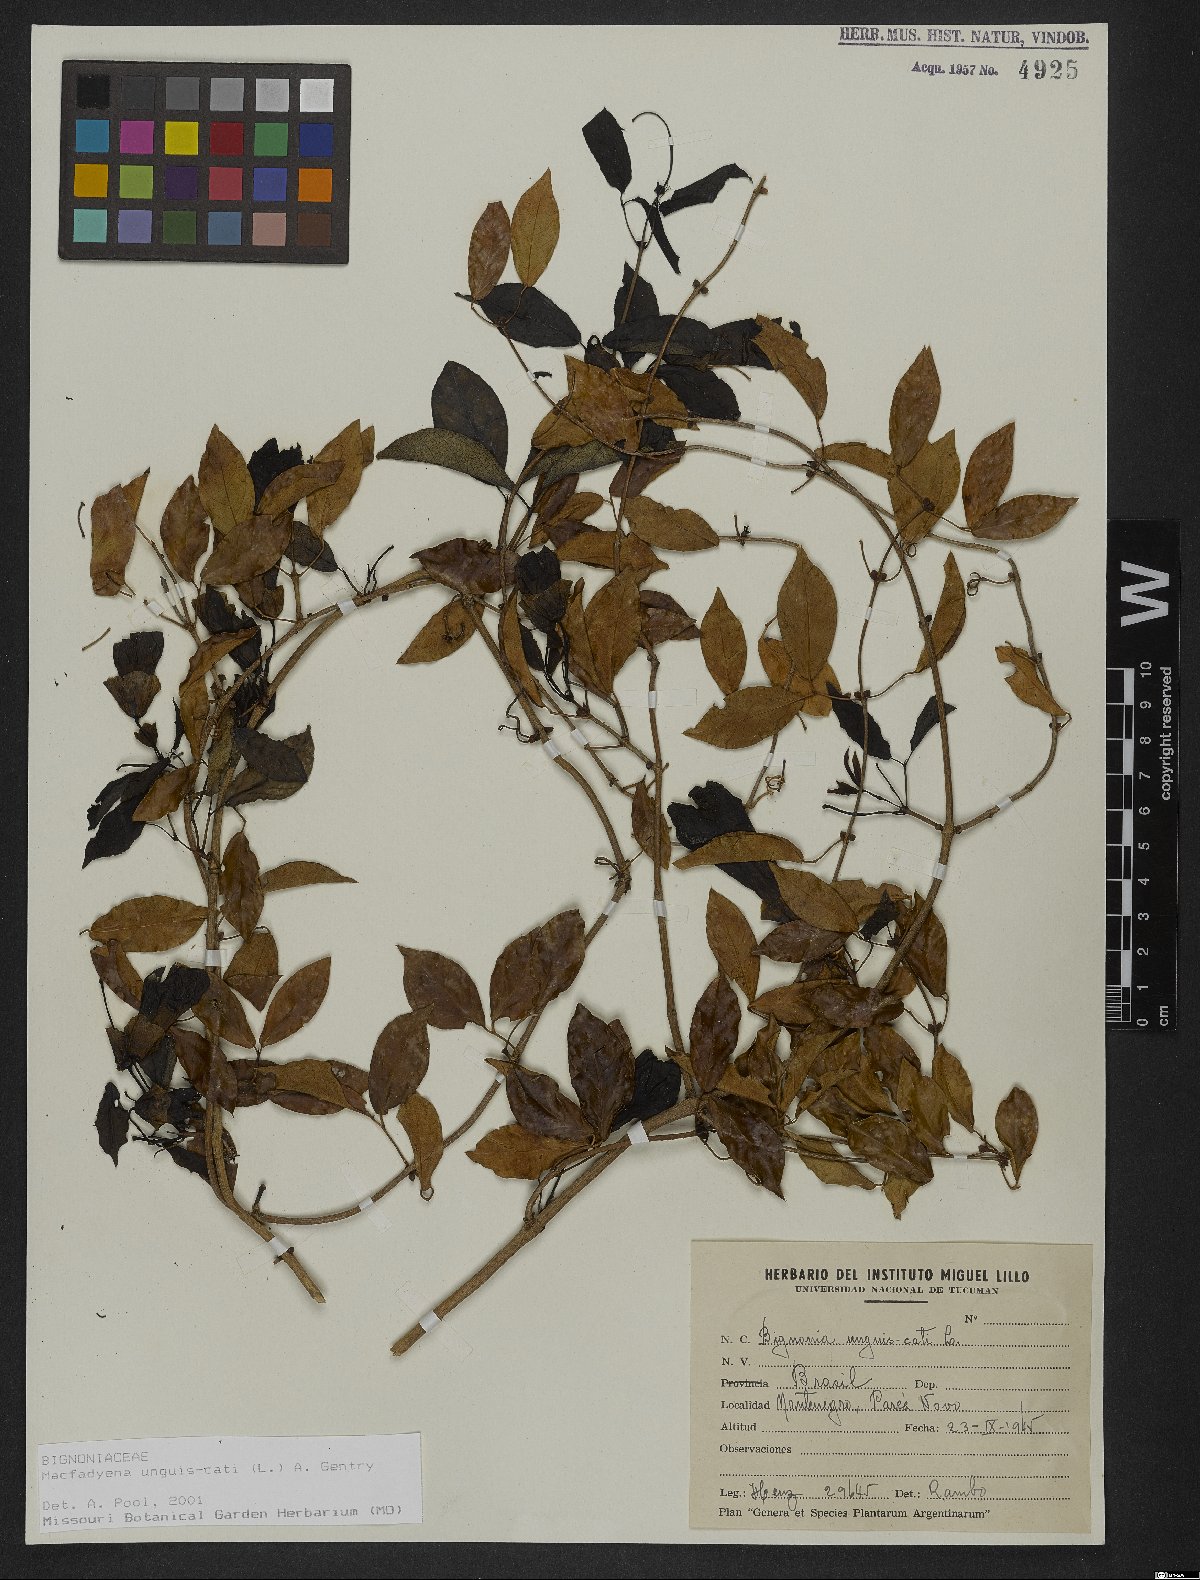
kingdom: Plantae
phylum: Tracheophyta
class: Magnoliopsida
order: Lamiales
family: Bignoniaceae
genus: Dolichandra
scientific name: Dolichandra unguis-cati
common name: Catclaw vine
